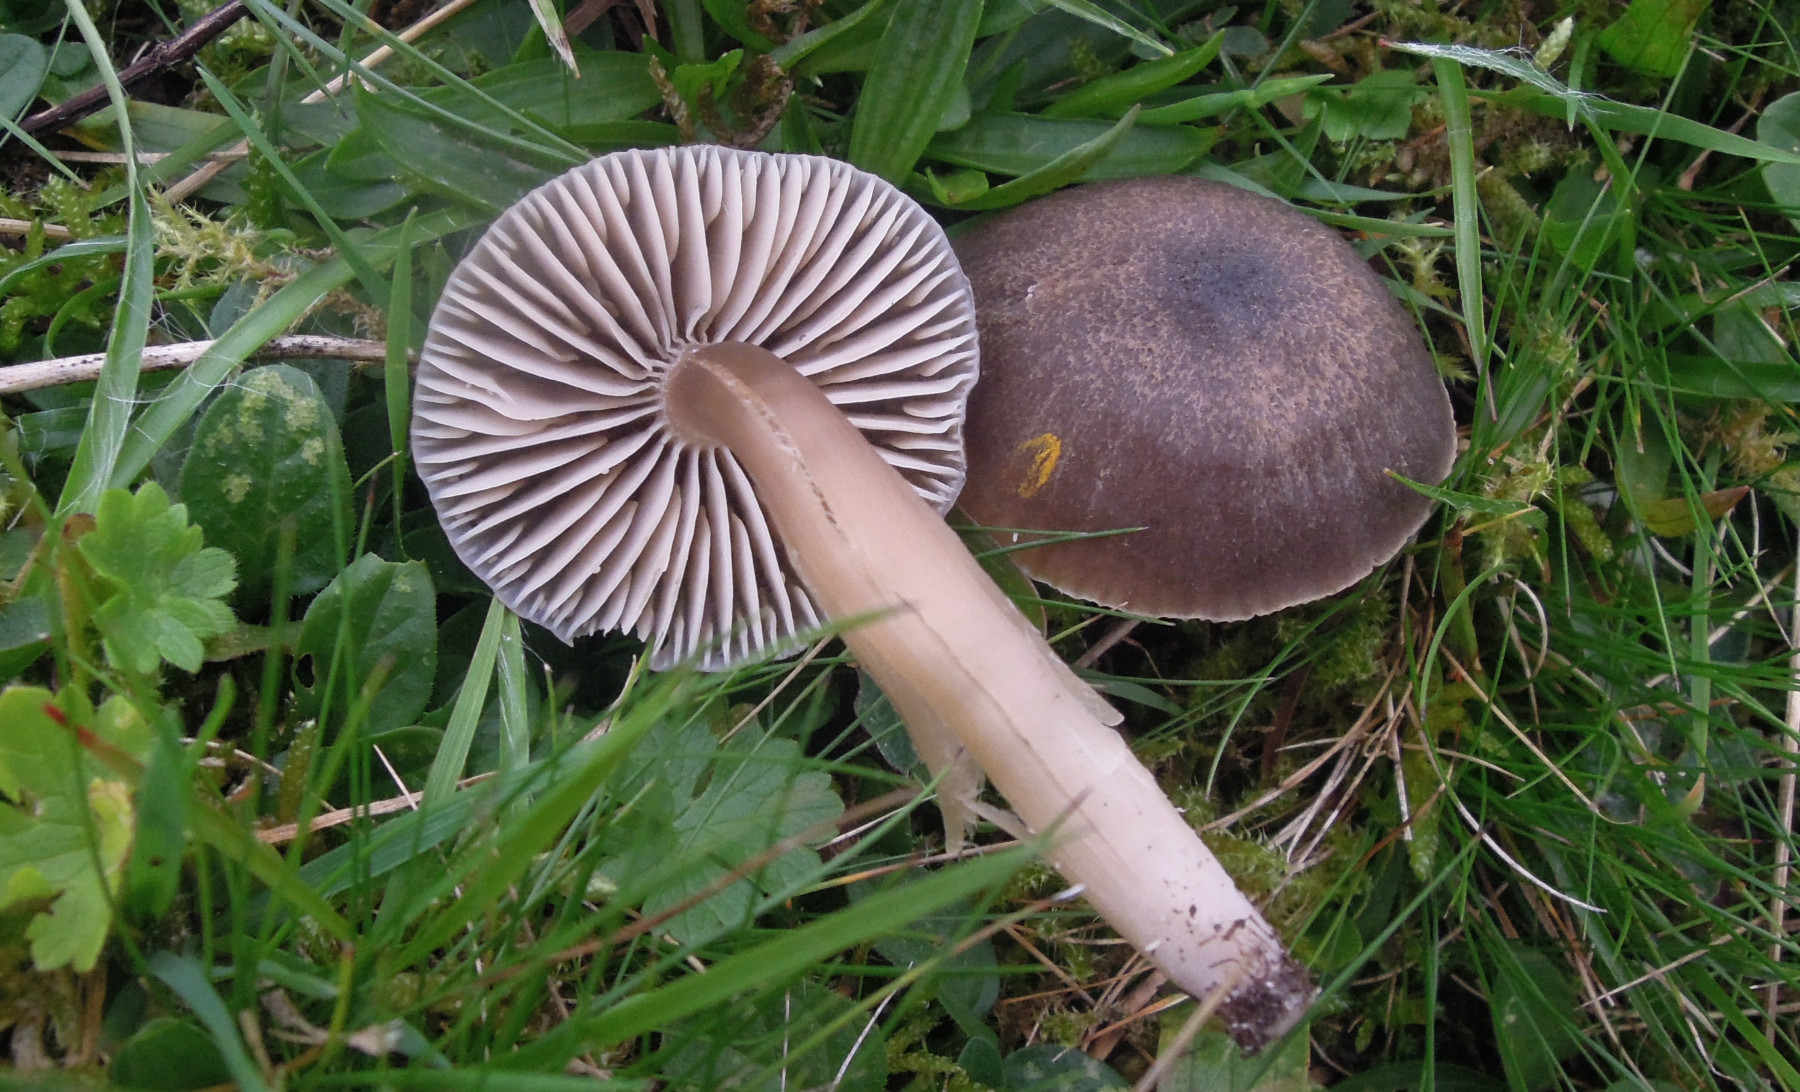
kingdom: Fungi
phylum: Basidiomycota
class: Agaricomycetes
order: Agaricales
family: Hygrophoraceae
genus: Neohygrocybe
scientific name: Neohygrocybe nitrata
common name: stinkende vokshat
